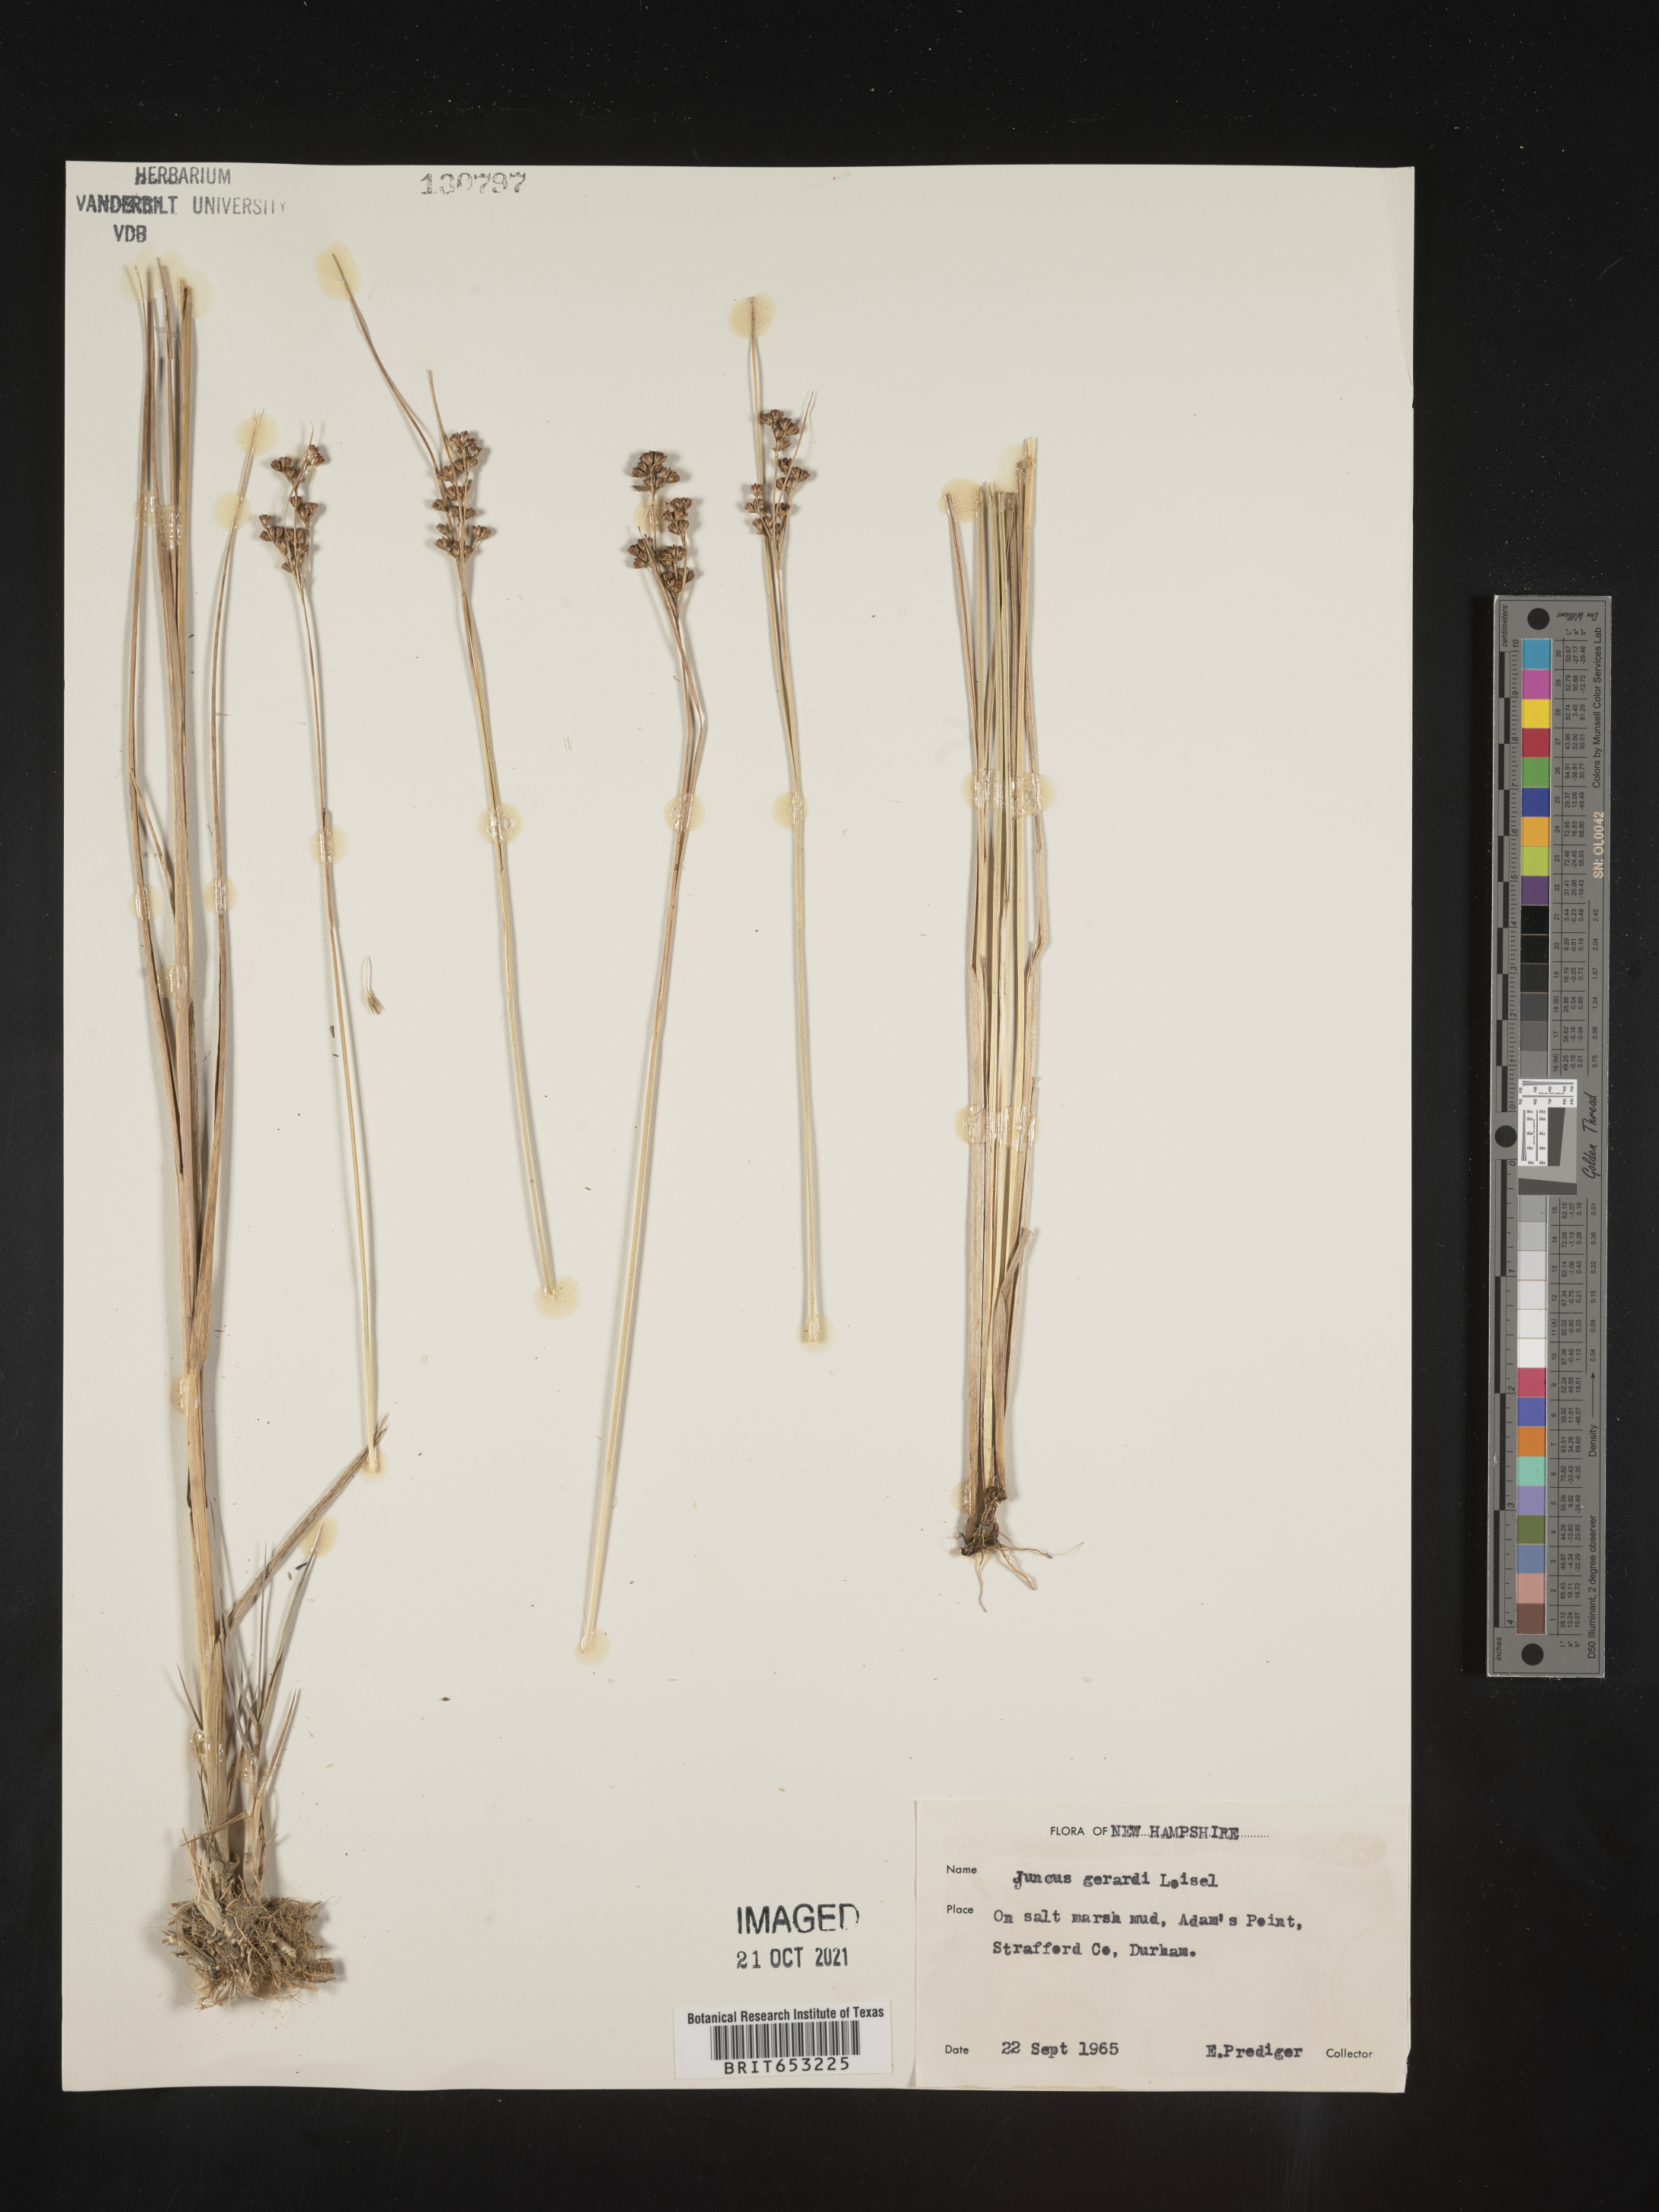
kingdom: Plantae
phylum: Tracheophyta
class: Liliopsida
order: Poales
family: Juncaceae
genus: Juncus
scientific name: Juncus gerardi
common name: Saltmarsh rush
